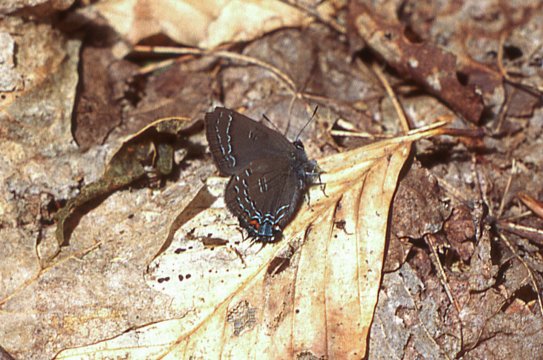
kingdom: Animalia
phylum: Arthropoda
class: Insecta
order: Lepidoptera
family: Lycaenidae
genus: Satyrium
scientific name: Satyrium calanus
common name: Banded Hairstreak
